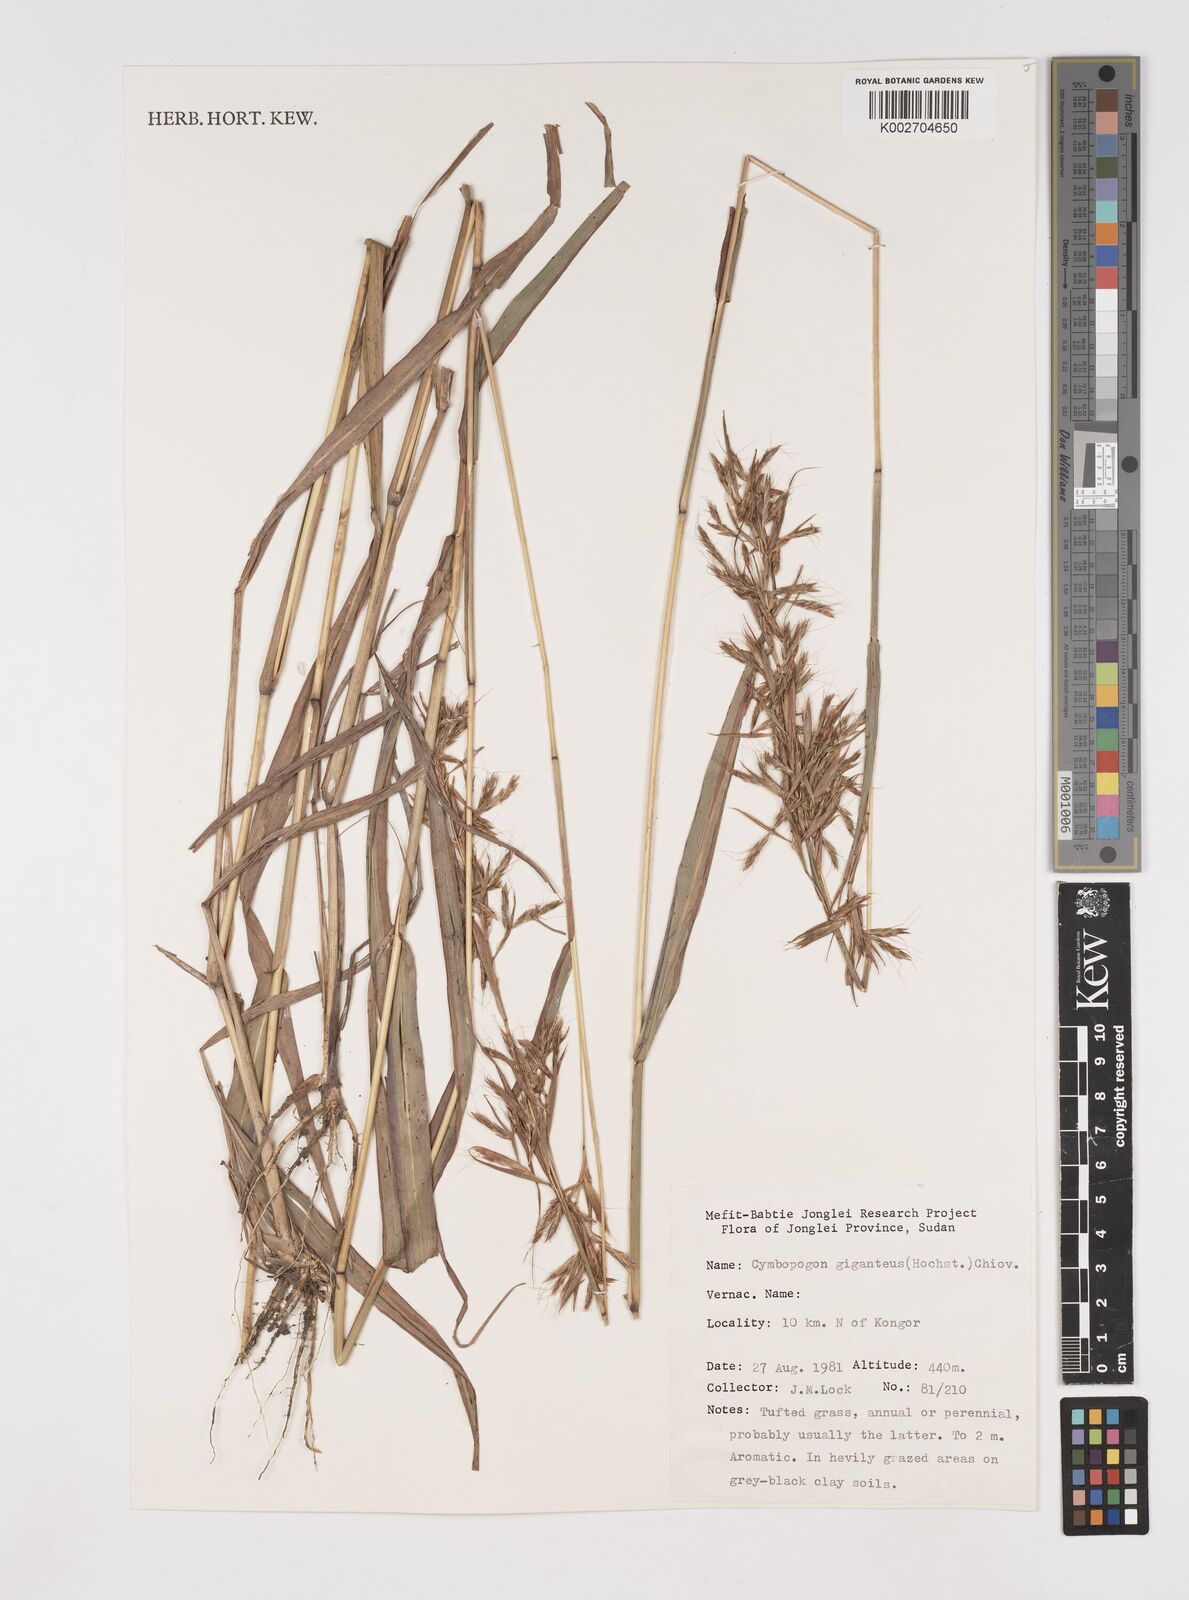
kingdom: Plantae
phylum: Tracheophyta
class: Liliopsida
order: Poales
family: Poaceae
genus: Cymbopogon
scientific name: Cymbopogon giganteus
